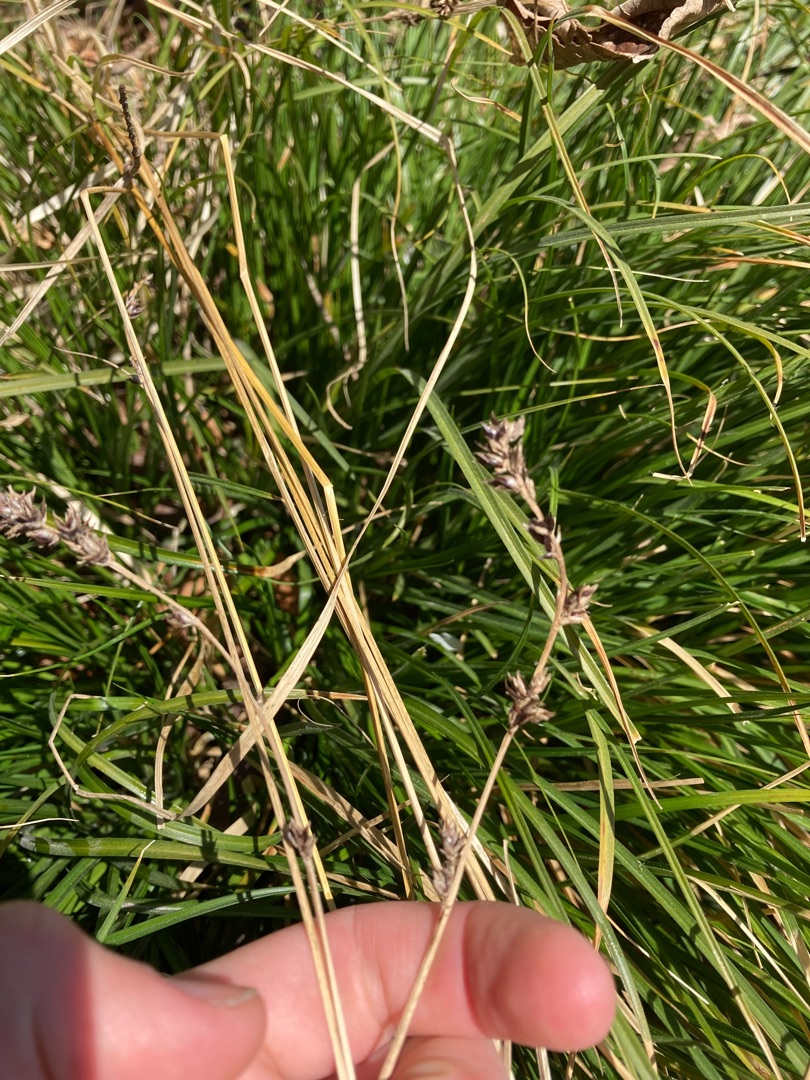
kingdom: Plantae
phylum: Tracheophyta
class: Liliopsida
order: Poales
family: Cyperaceae
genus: Carex
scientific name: Carex divulsa
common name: Mellembrudt star
